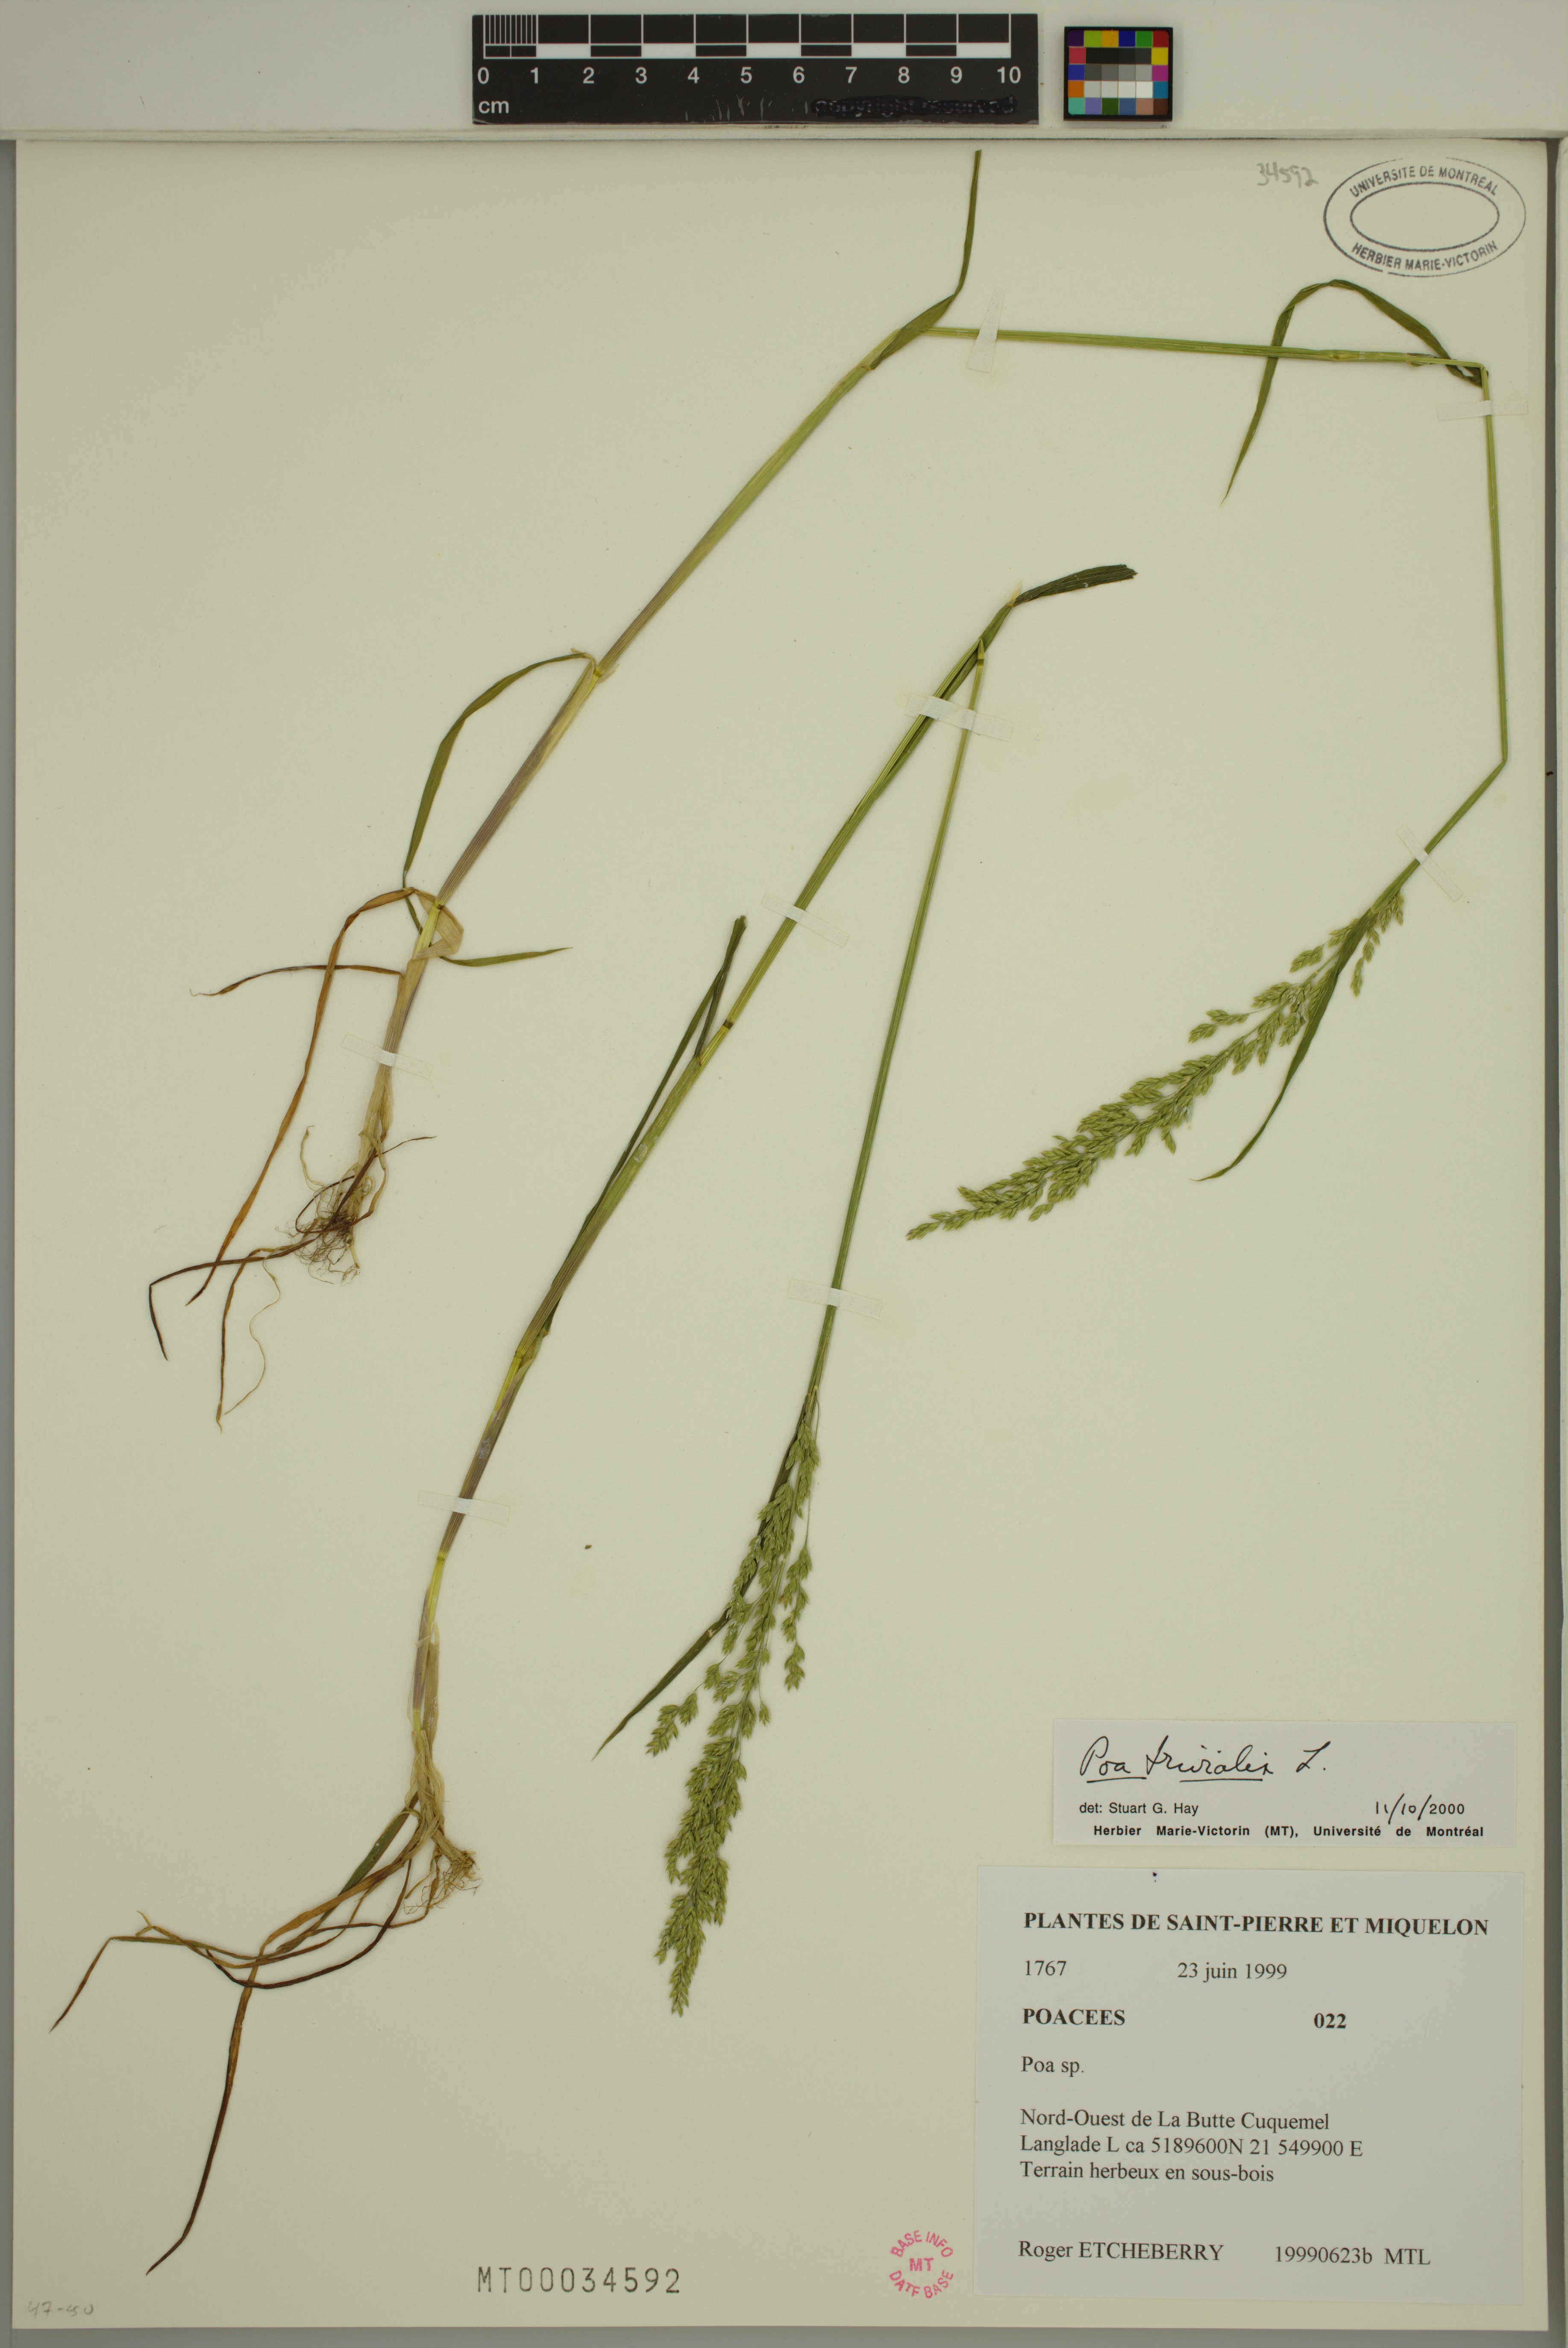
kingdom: Plantae
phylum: Tracheophyta
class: Liliopsida
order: Poales
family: Poaceae
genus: Poa
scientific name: Poa trivialis
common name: Rough bluegrass
